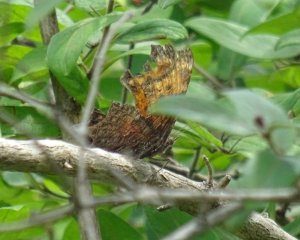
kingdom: Animalia
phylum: Arthropoda
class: Insecta
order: Lepidoptera
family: Nymphalidae
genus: Polygonia
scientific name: Polygonia progne
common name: Gray Comma
